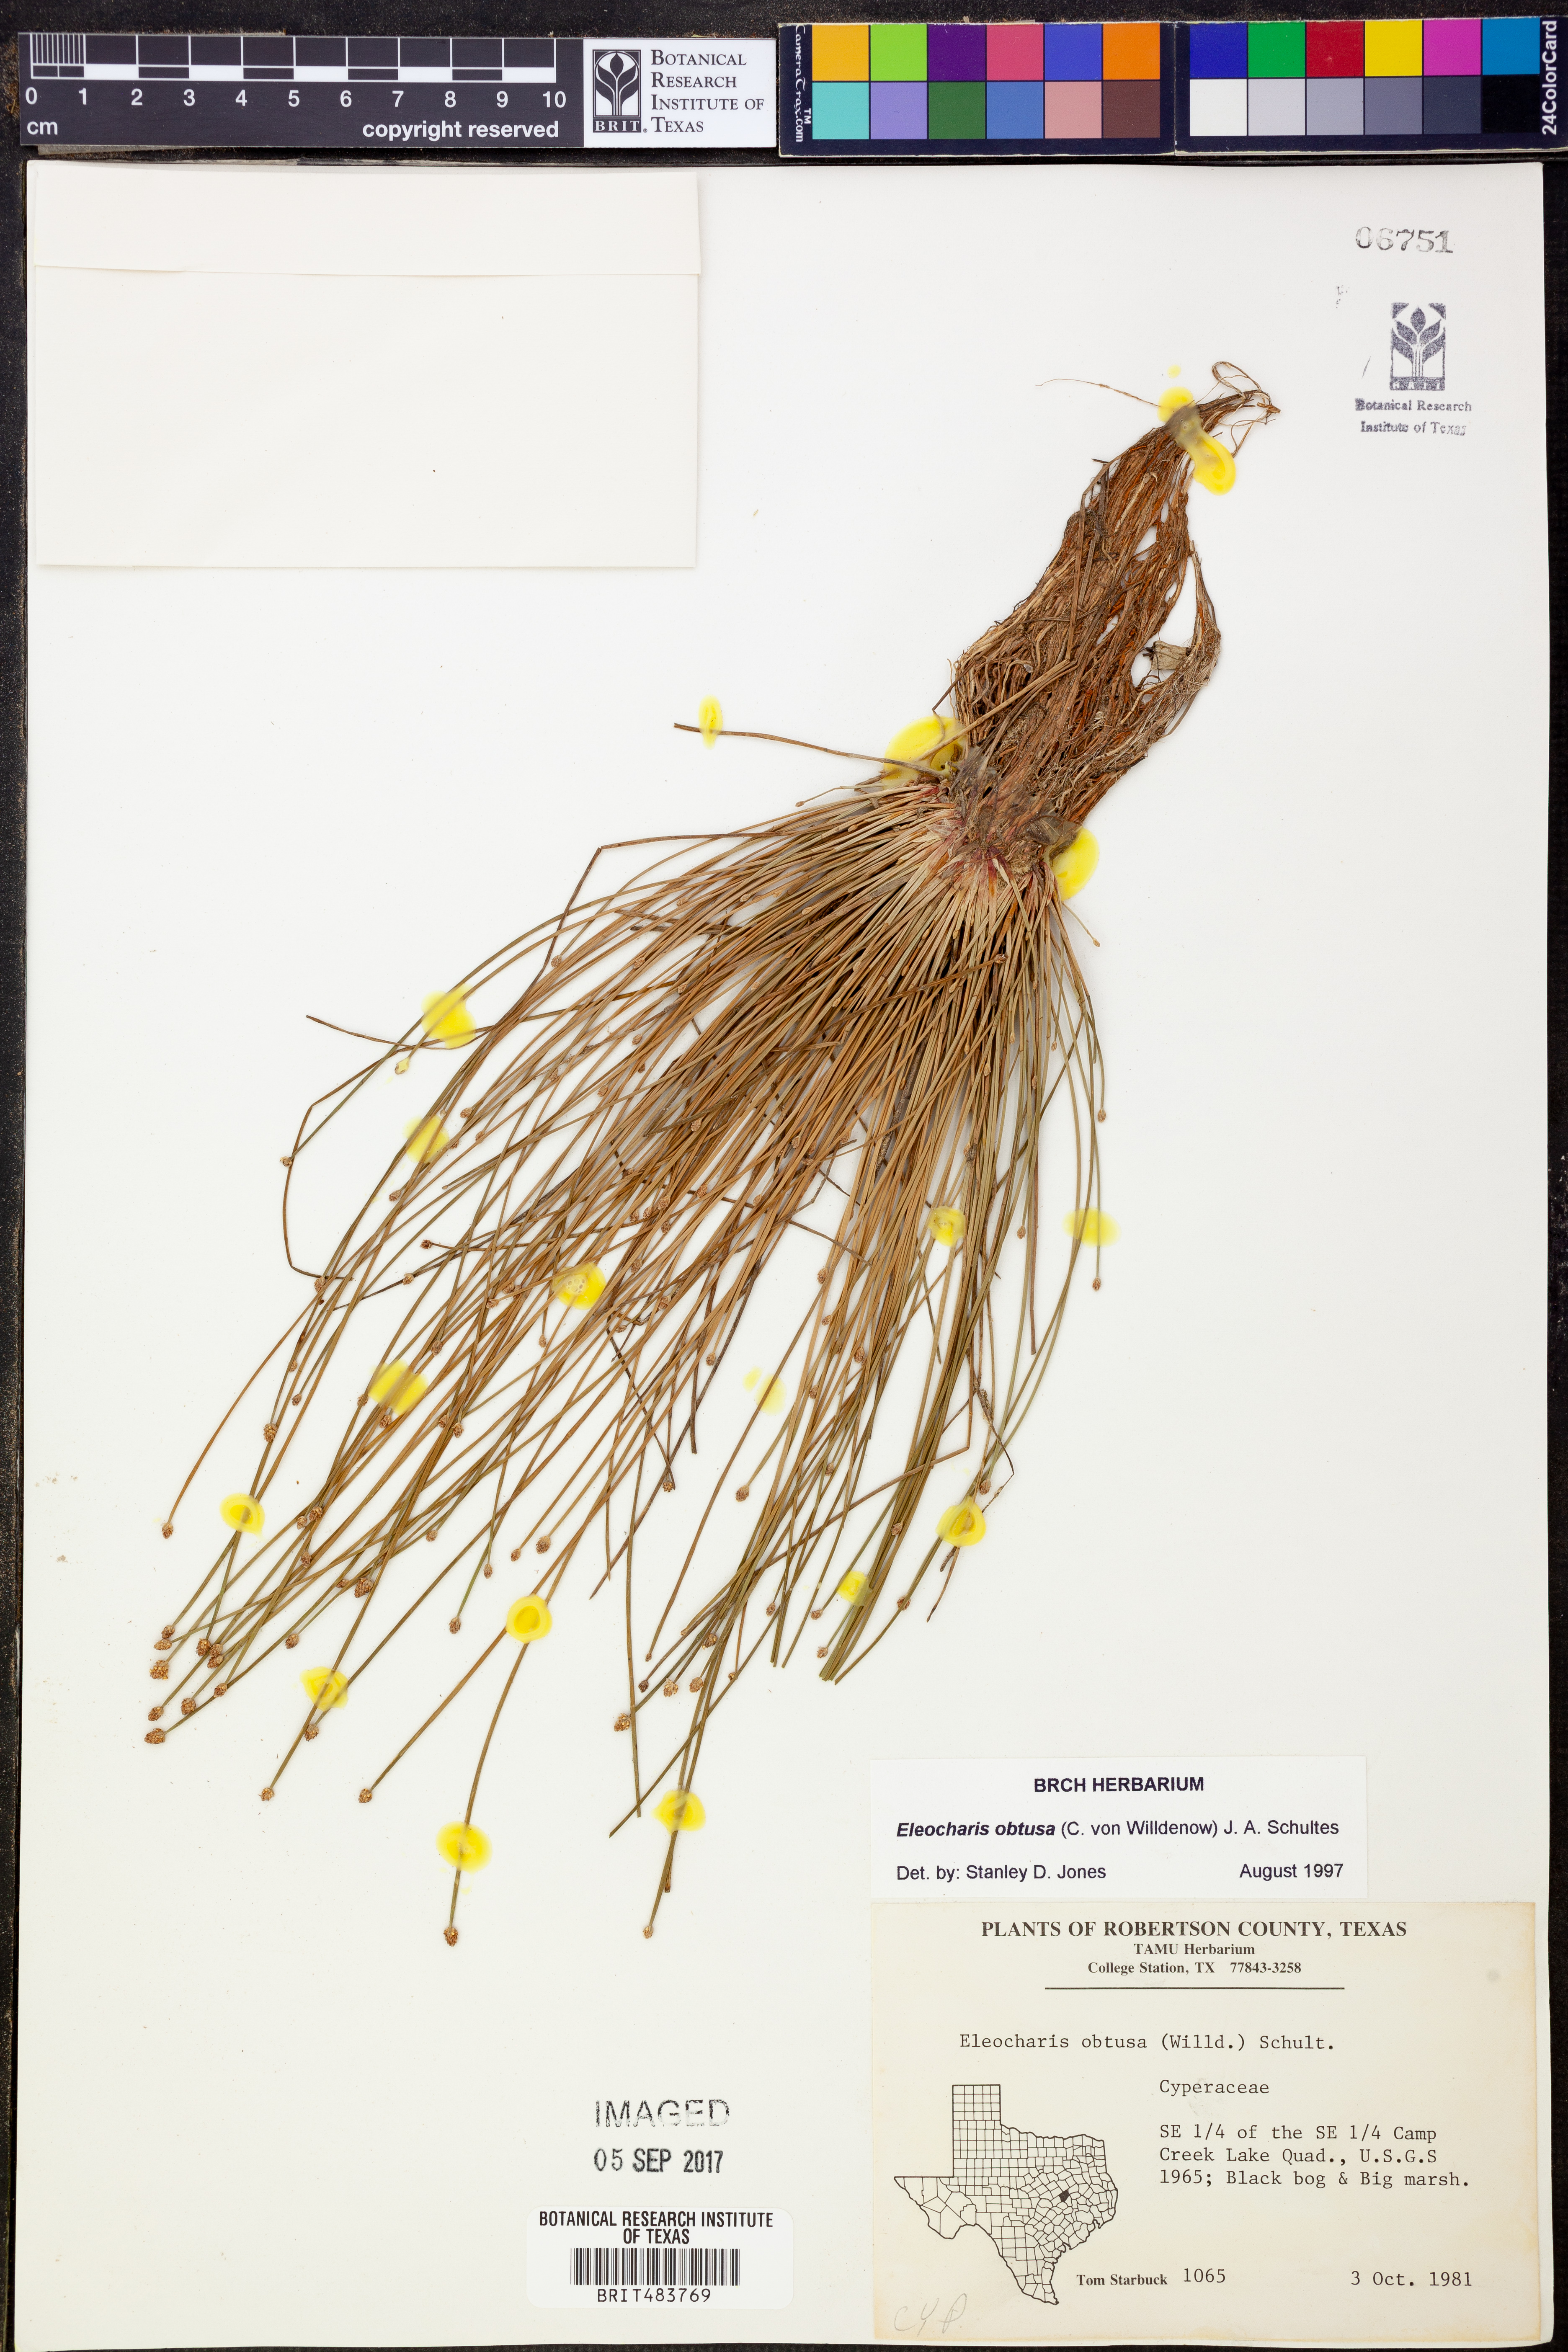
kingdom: Plantae
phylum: Tracheophyta
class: Liliopsida
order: Poales
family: Cyperaceae
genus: Eleocharis
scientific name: Eleocharis obtusa
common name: Blunt spikerush
